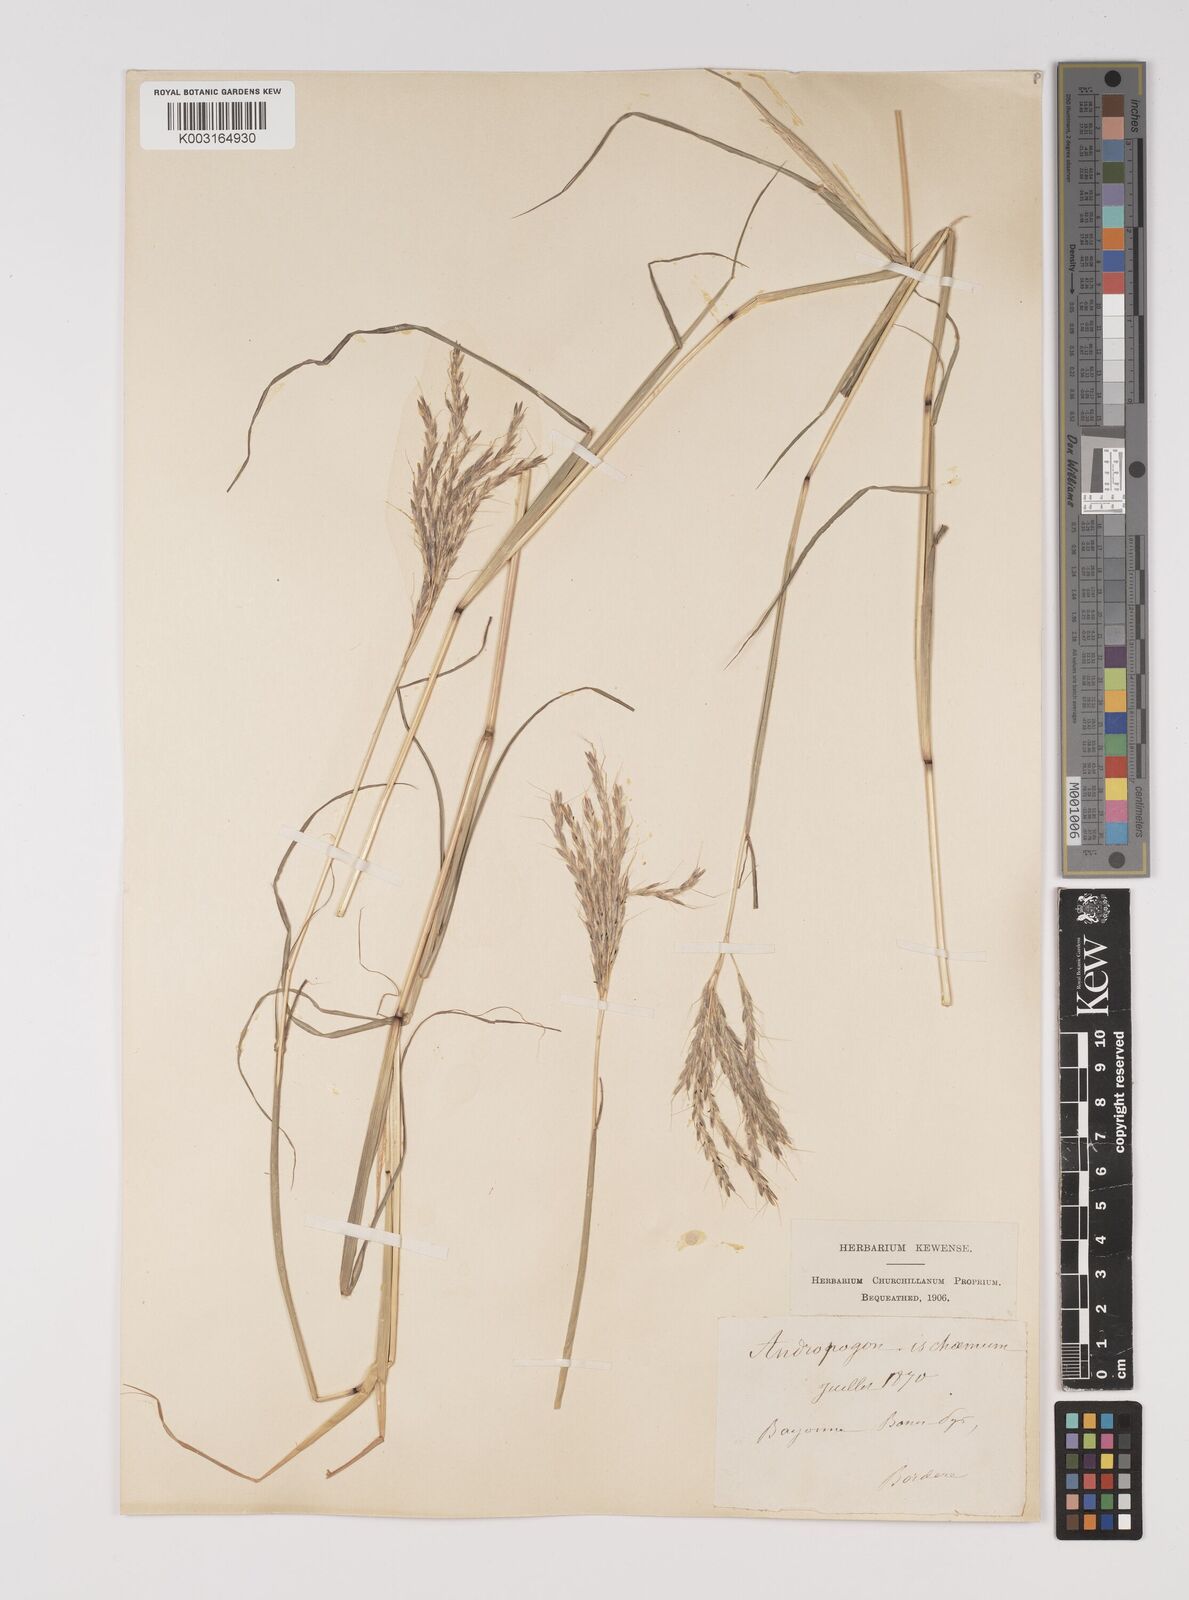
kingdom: Plantae
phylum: Tracheophyta
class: Liliopsida
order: Poales
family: Poaceae
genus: Bothriochloa
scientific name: Bothriochloa ischaemum
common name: Yellow bluestem
